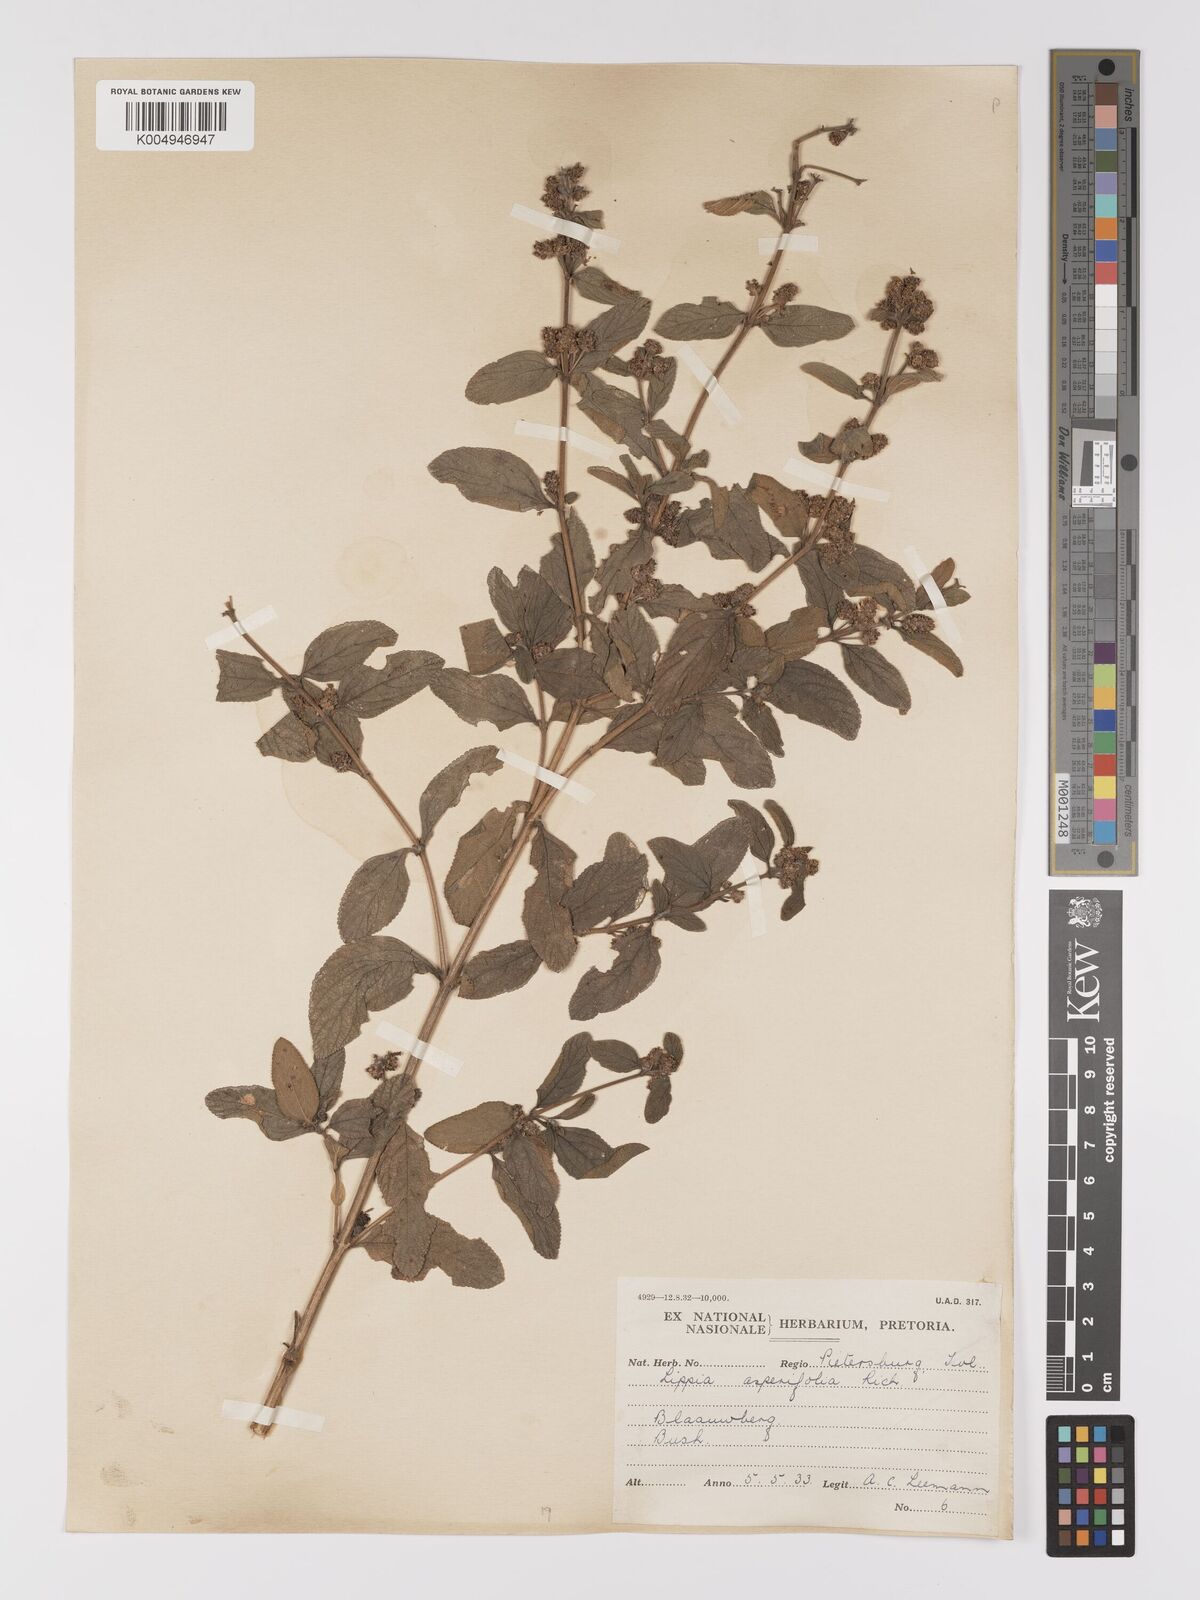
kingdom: Plantae
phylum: Tracheophyta
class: Magnoliopsida
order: Lamiales
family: Verbenaceae
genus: Lippia
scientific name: Lippia
